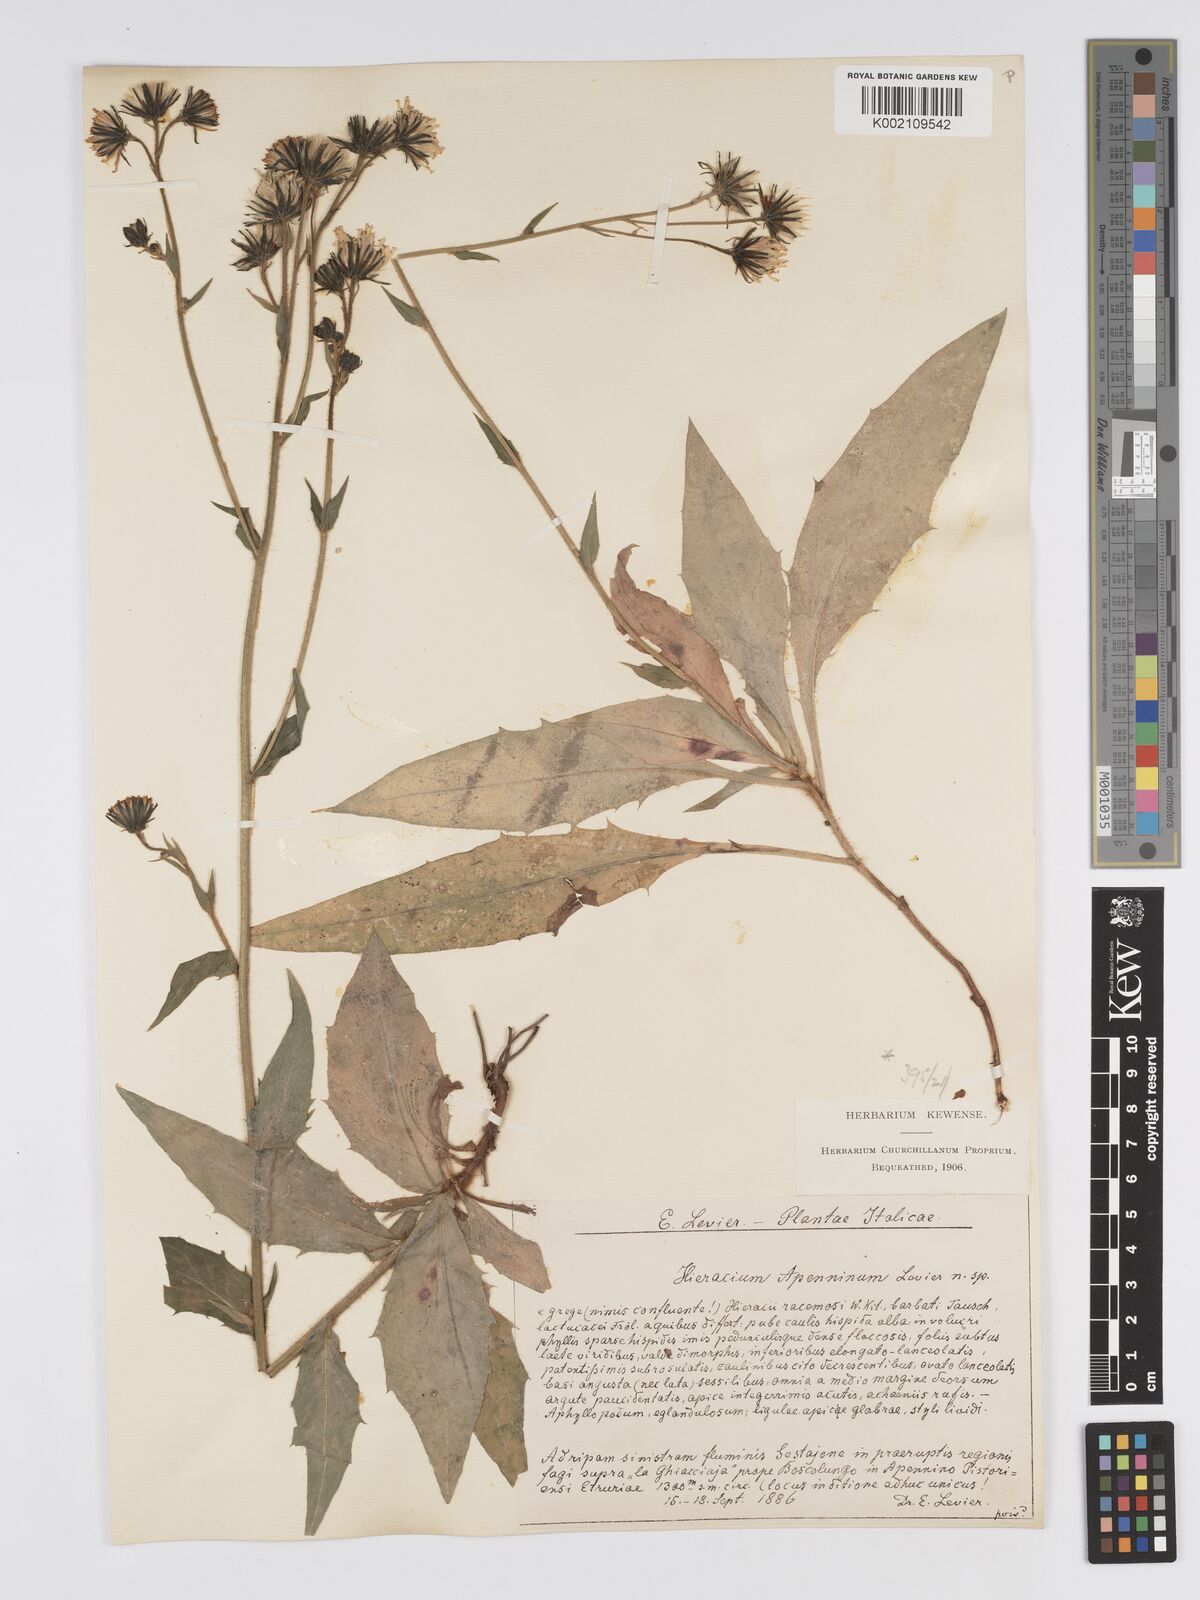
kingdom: Plantae
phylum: Tracheophyta
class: Magnoliopsida
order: Asterales
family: Asteraceae
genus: Hieracium
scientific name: Hieracium racemosum
